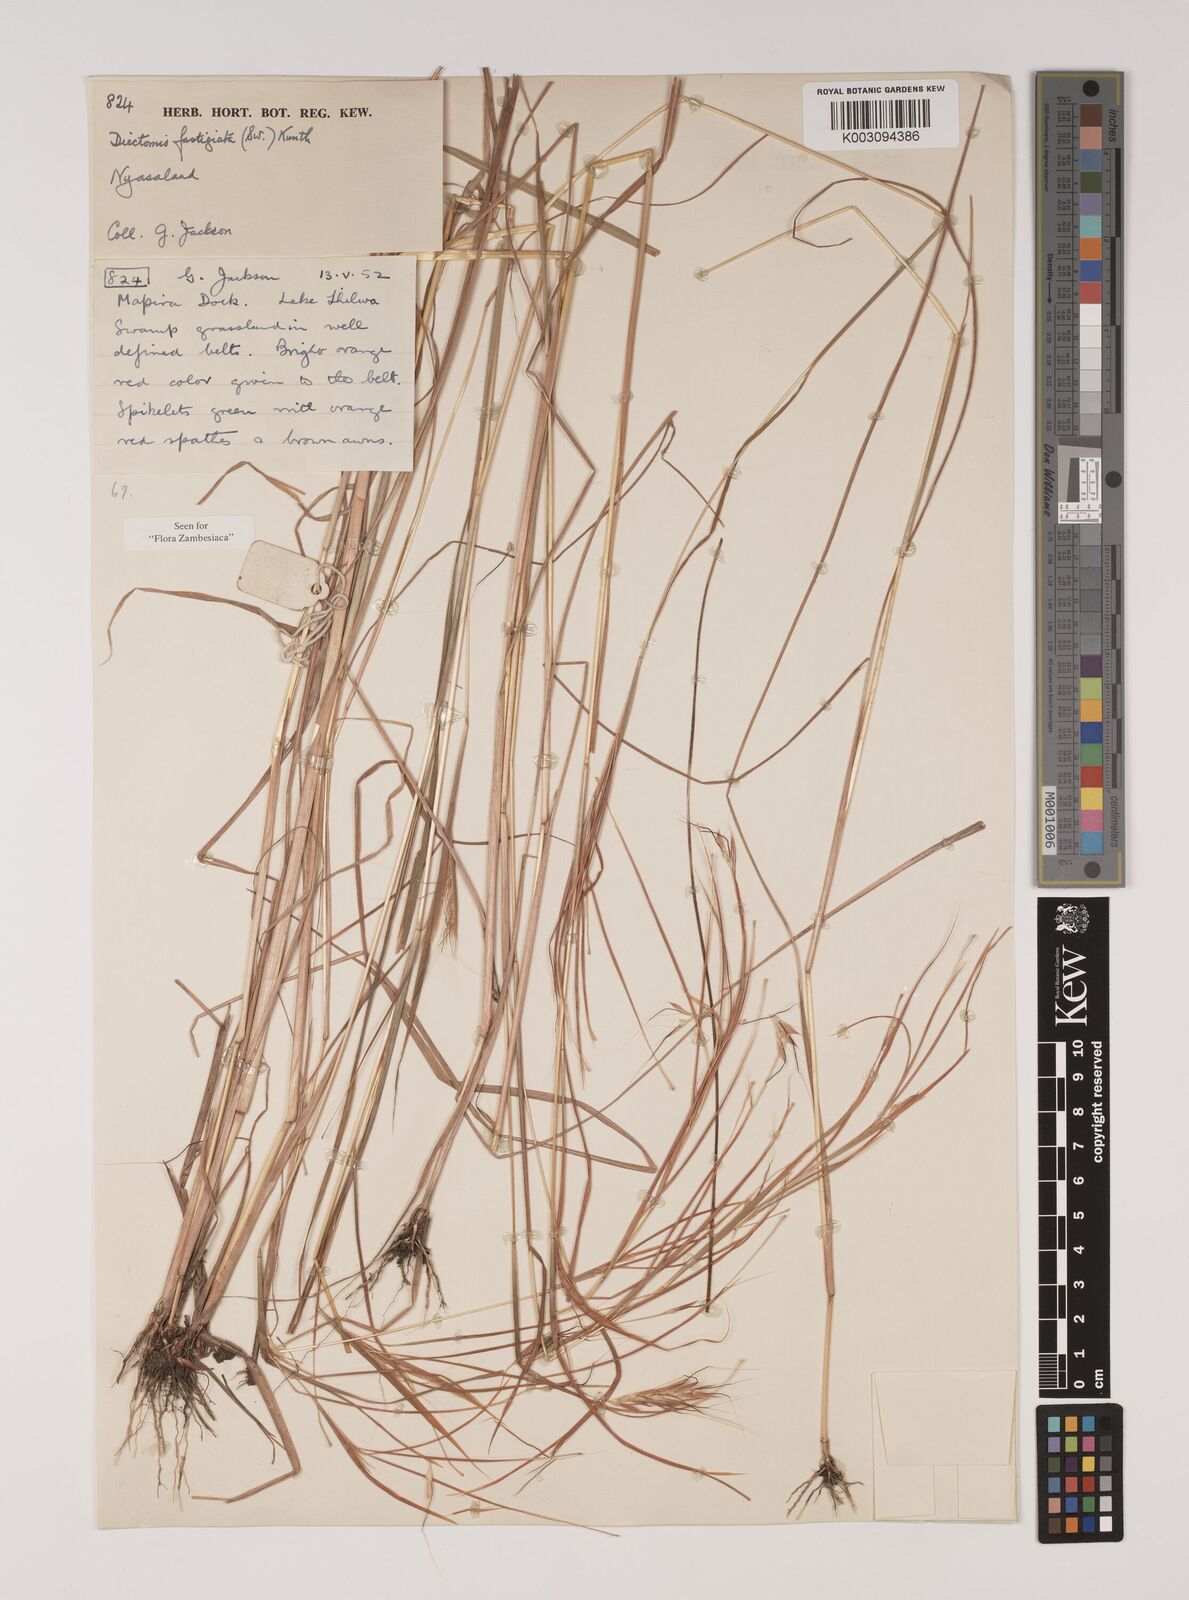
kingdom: Plantae
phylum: Tracheophyta
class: Liliopsida
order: Poales
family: Poaceae
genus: Andropogon
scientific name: Andropogon festuciformis
